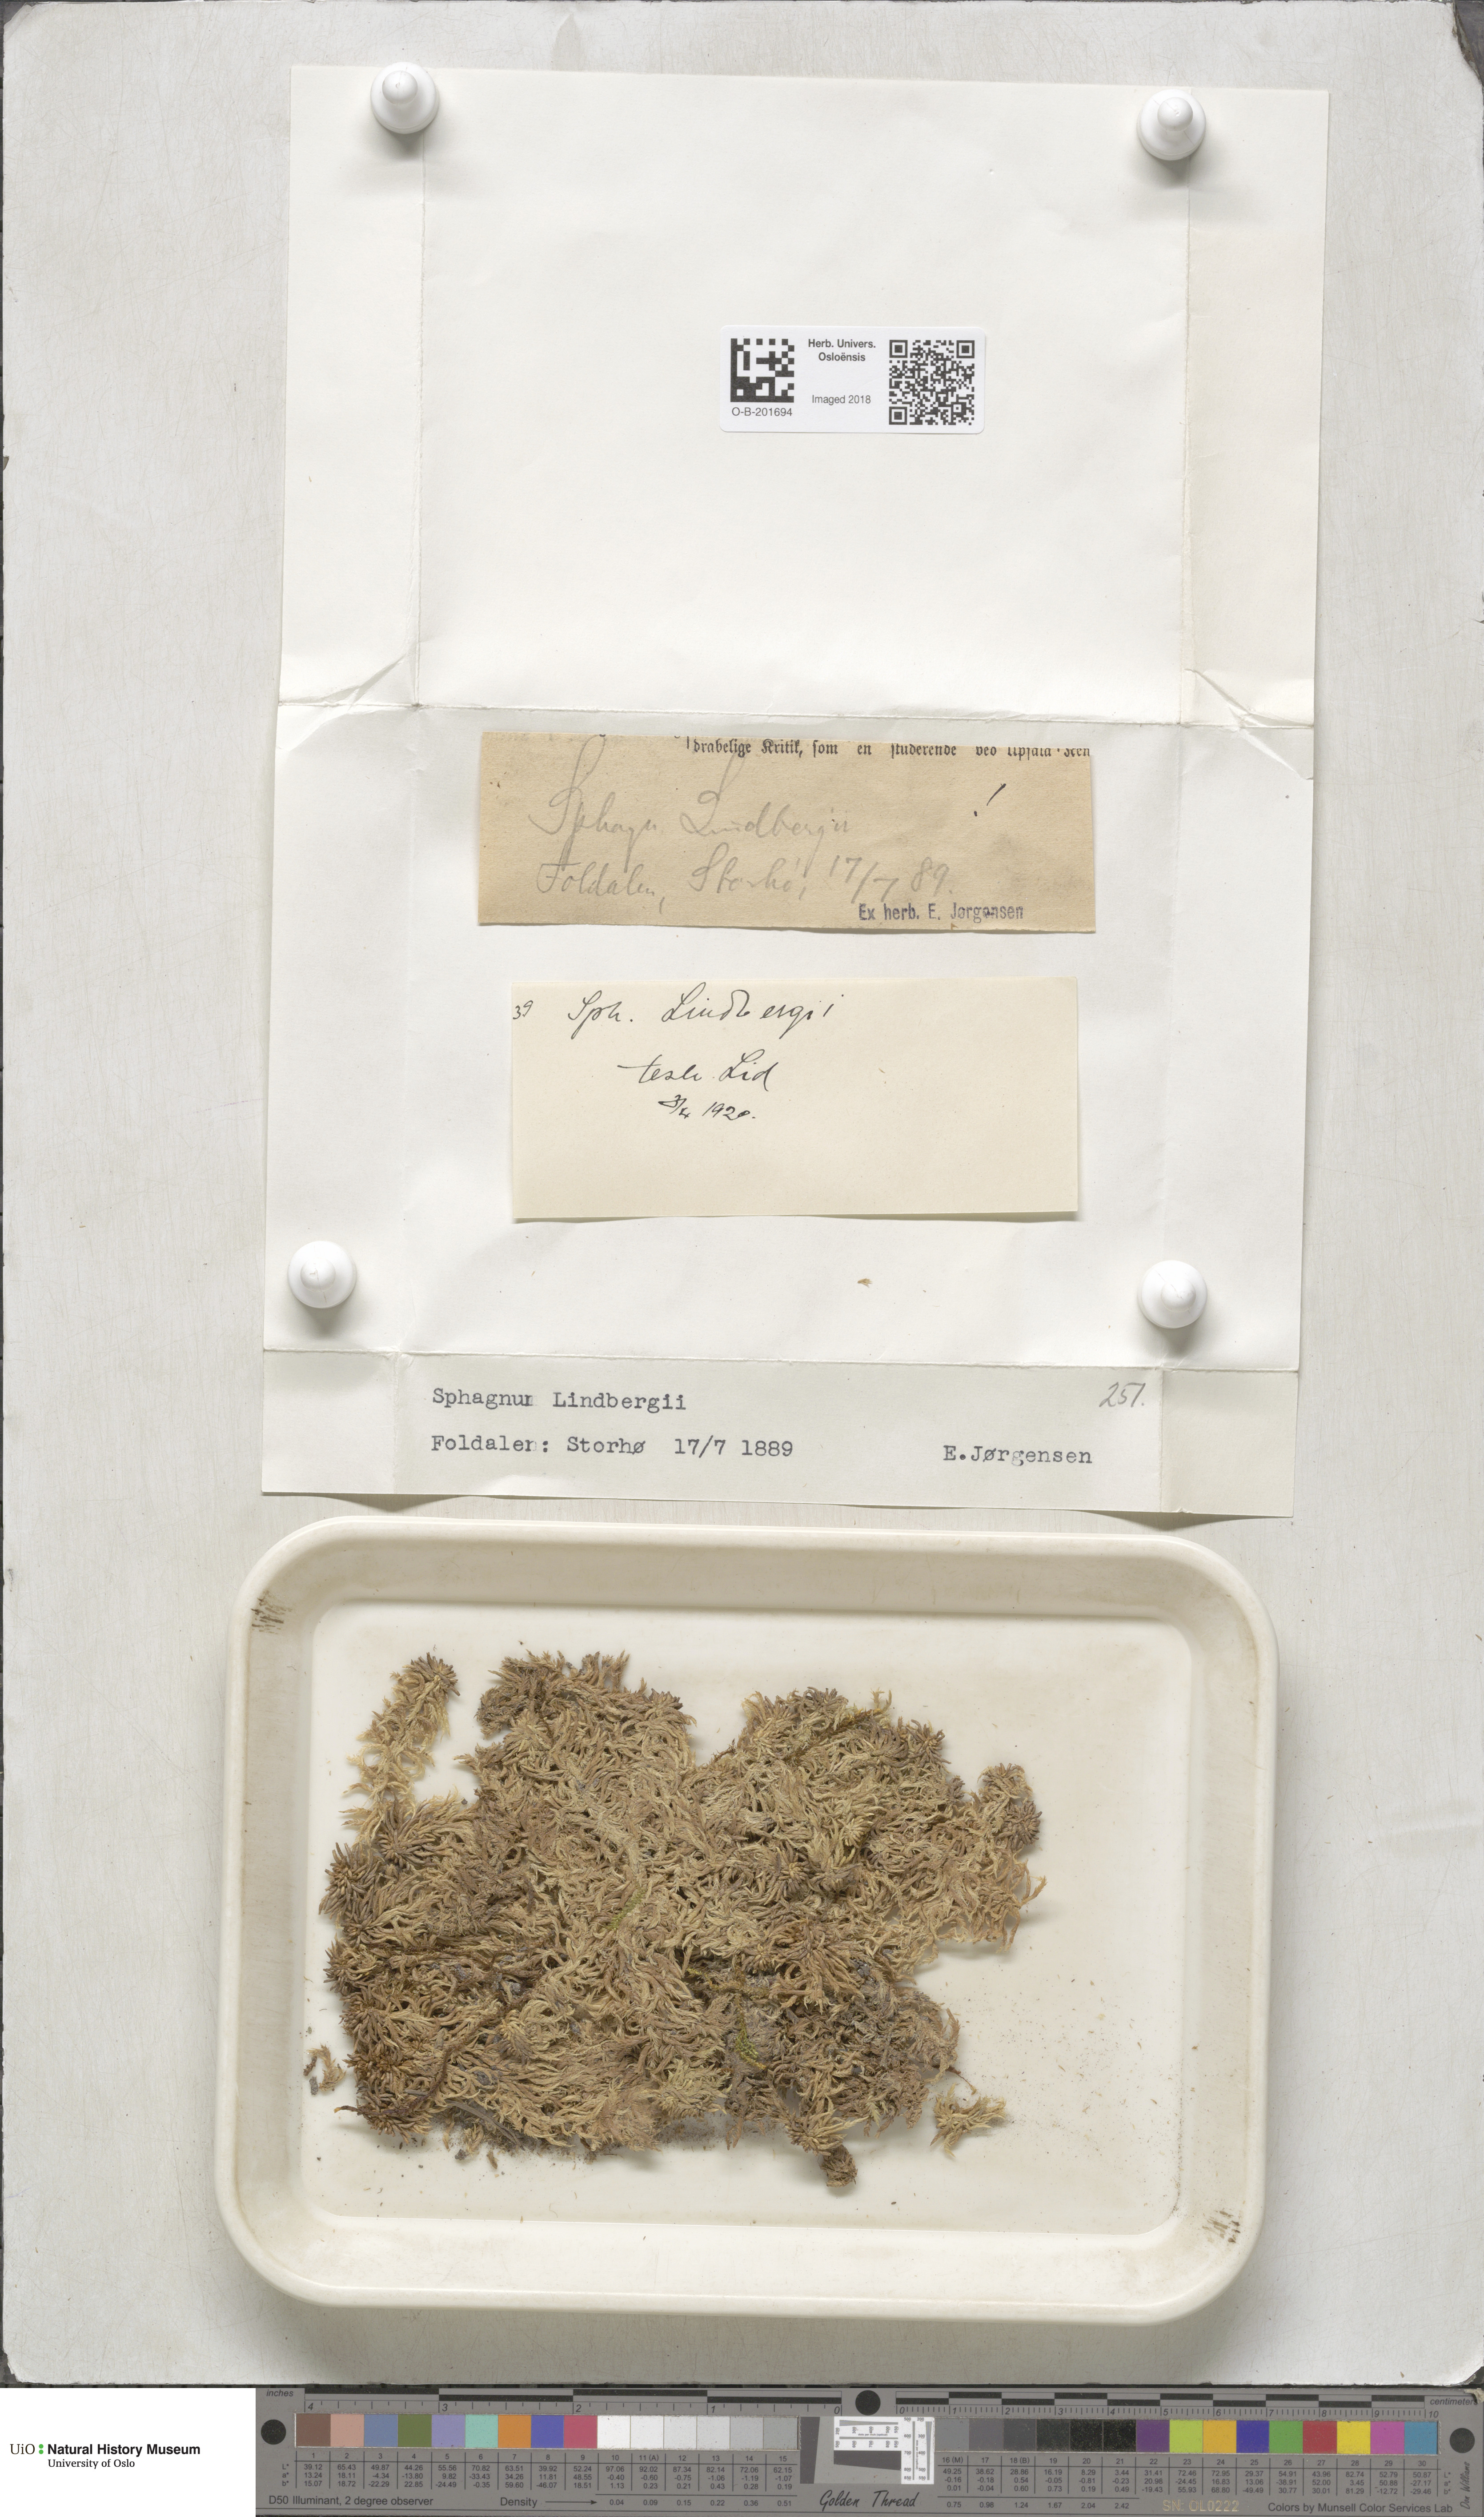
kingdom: Plantae
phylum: Bryophyta
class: Sphagnopsida
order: Sphagnales
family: Sphagnaceae
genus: Sphagnum
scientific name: Sphagnum lindbergii
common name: Lindberg's peat moss
